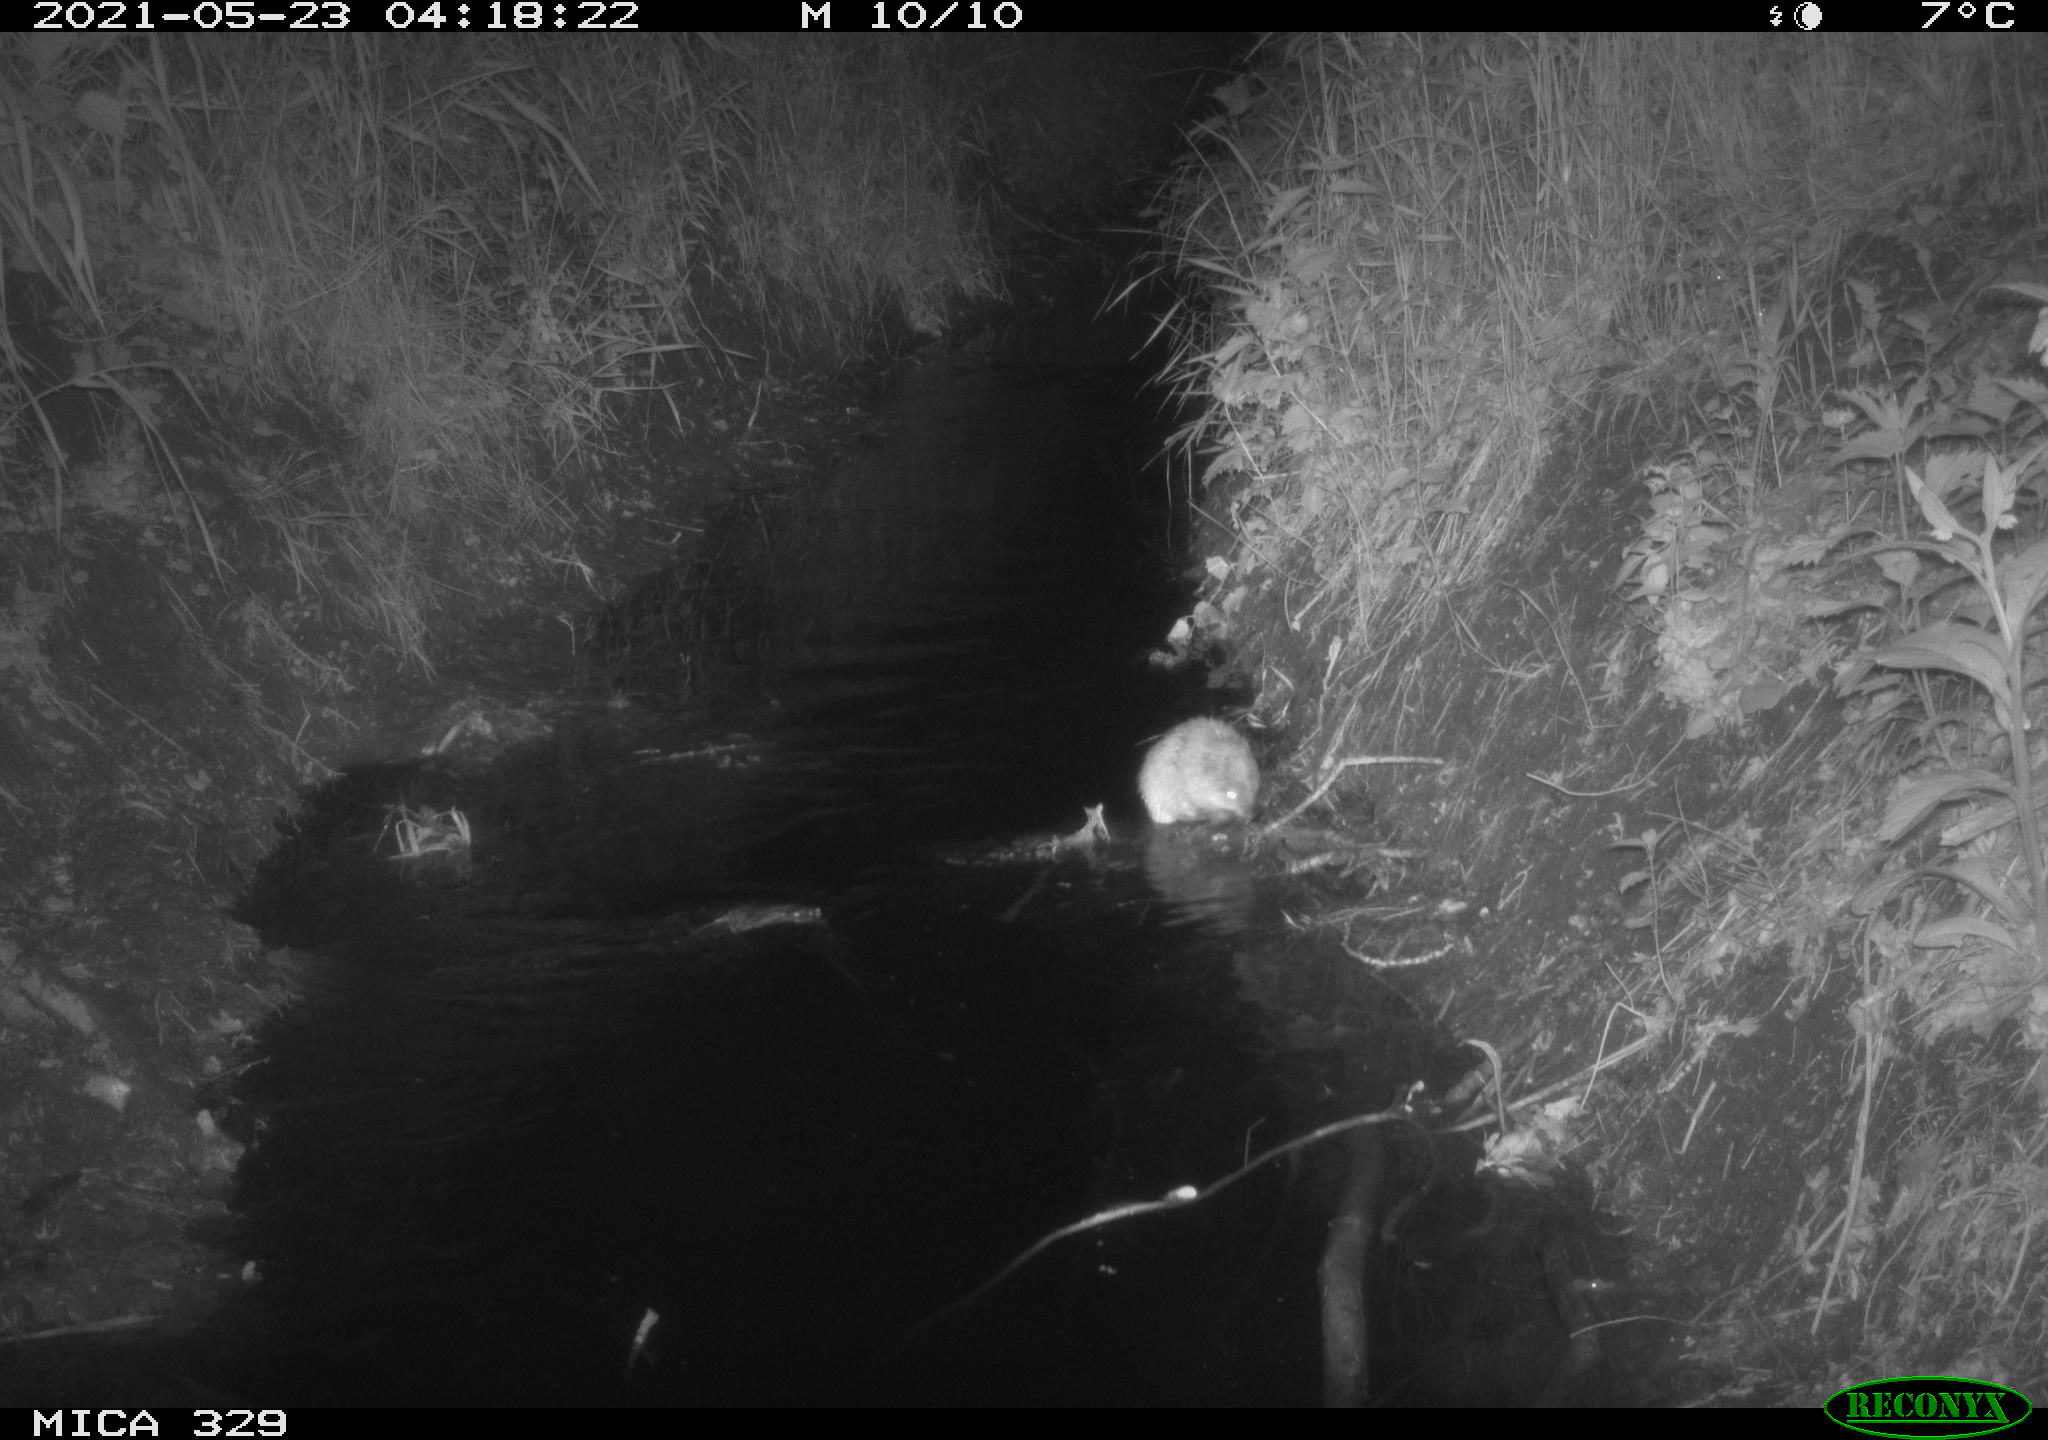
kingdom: Animalia
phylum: Chordata
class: Mammalia
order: Rodentia
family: Cricetidae
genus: Ondatra
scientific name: Ondatra zibethicus
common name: Muskrat
